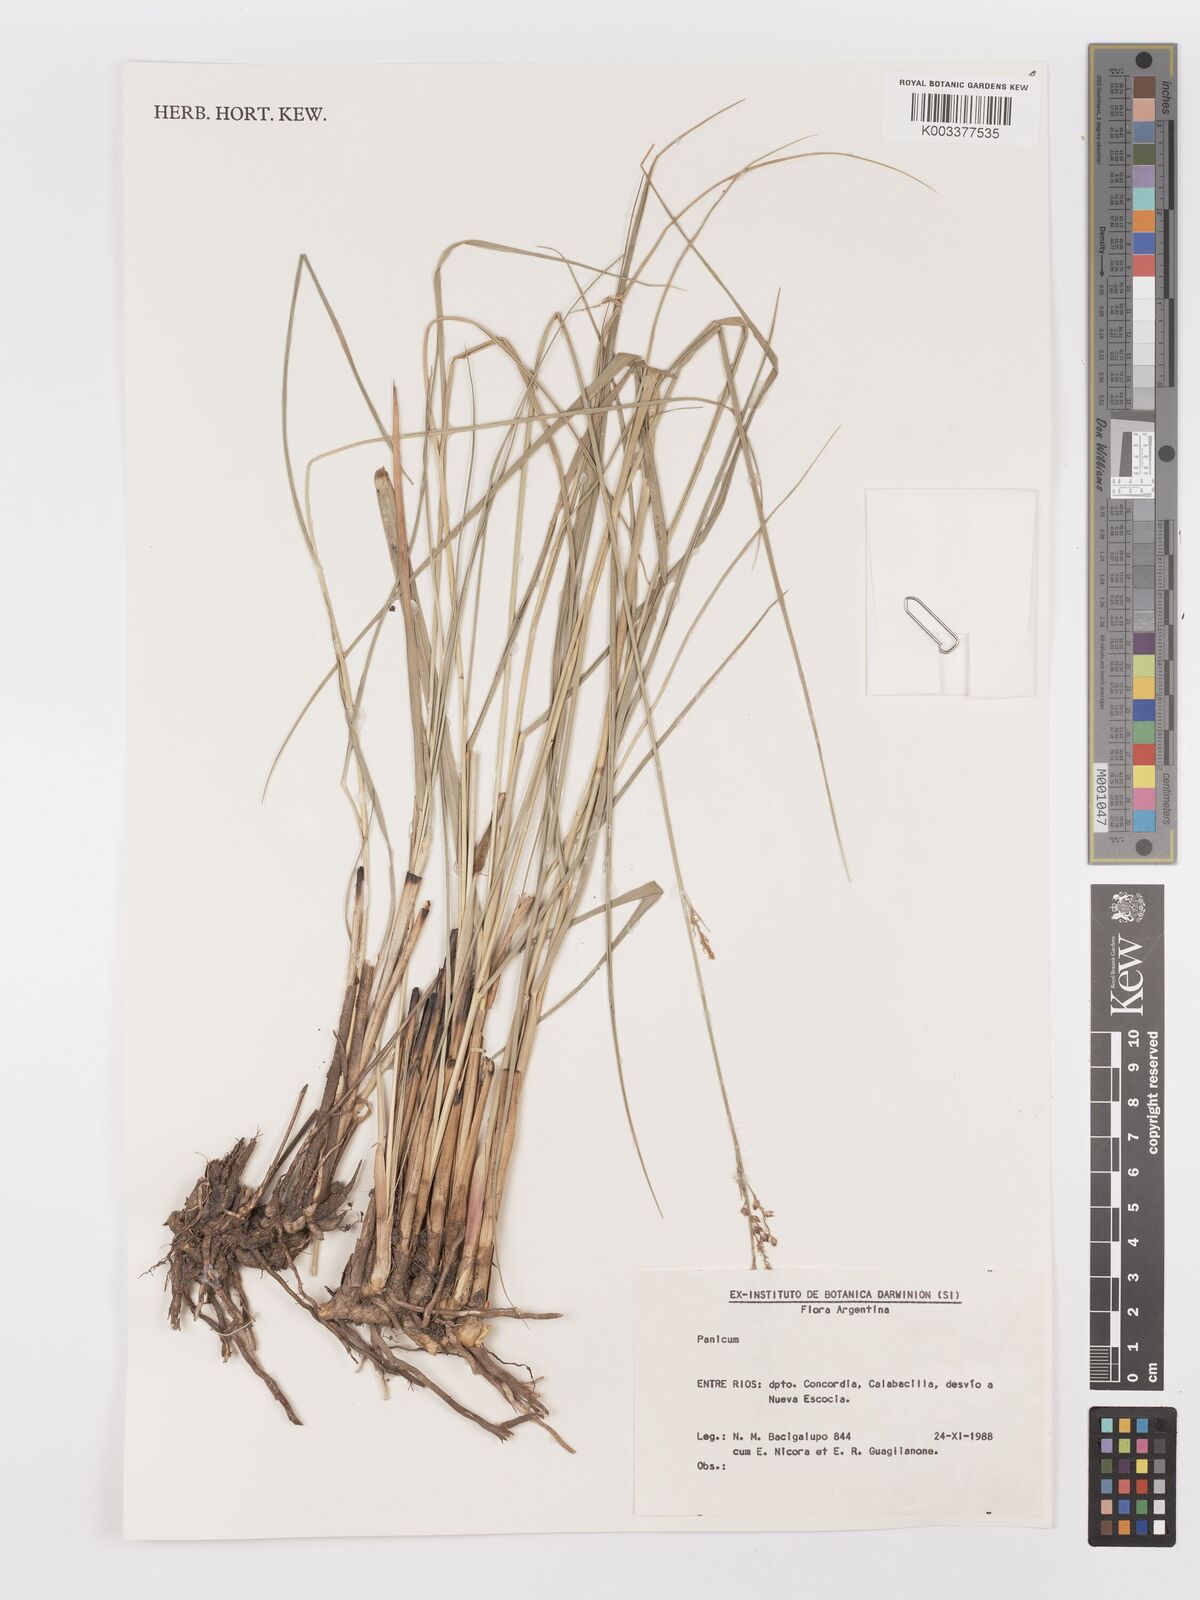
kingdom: Plantae
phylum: Tracheophyta
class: Liliopsida
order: Poales
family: Poaceae
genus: Panicum
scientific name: Panicum glabripes
